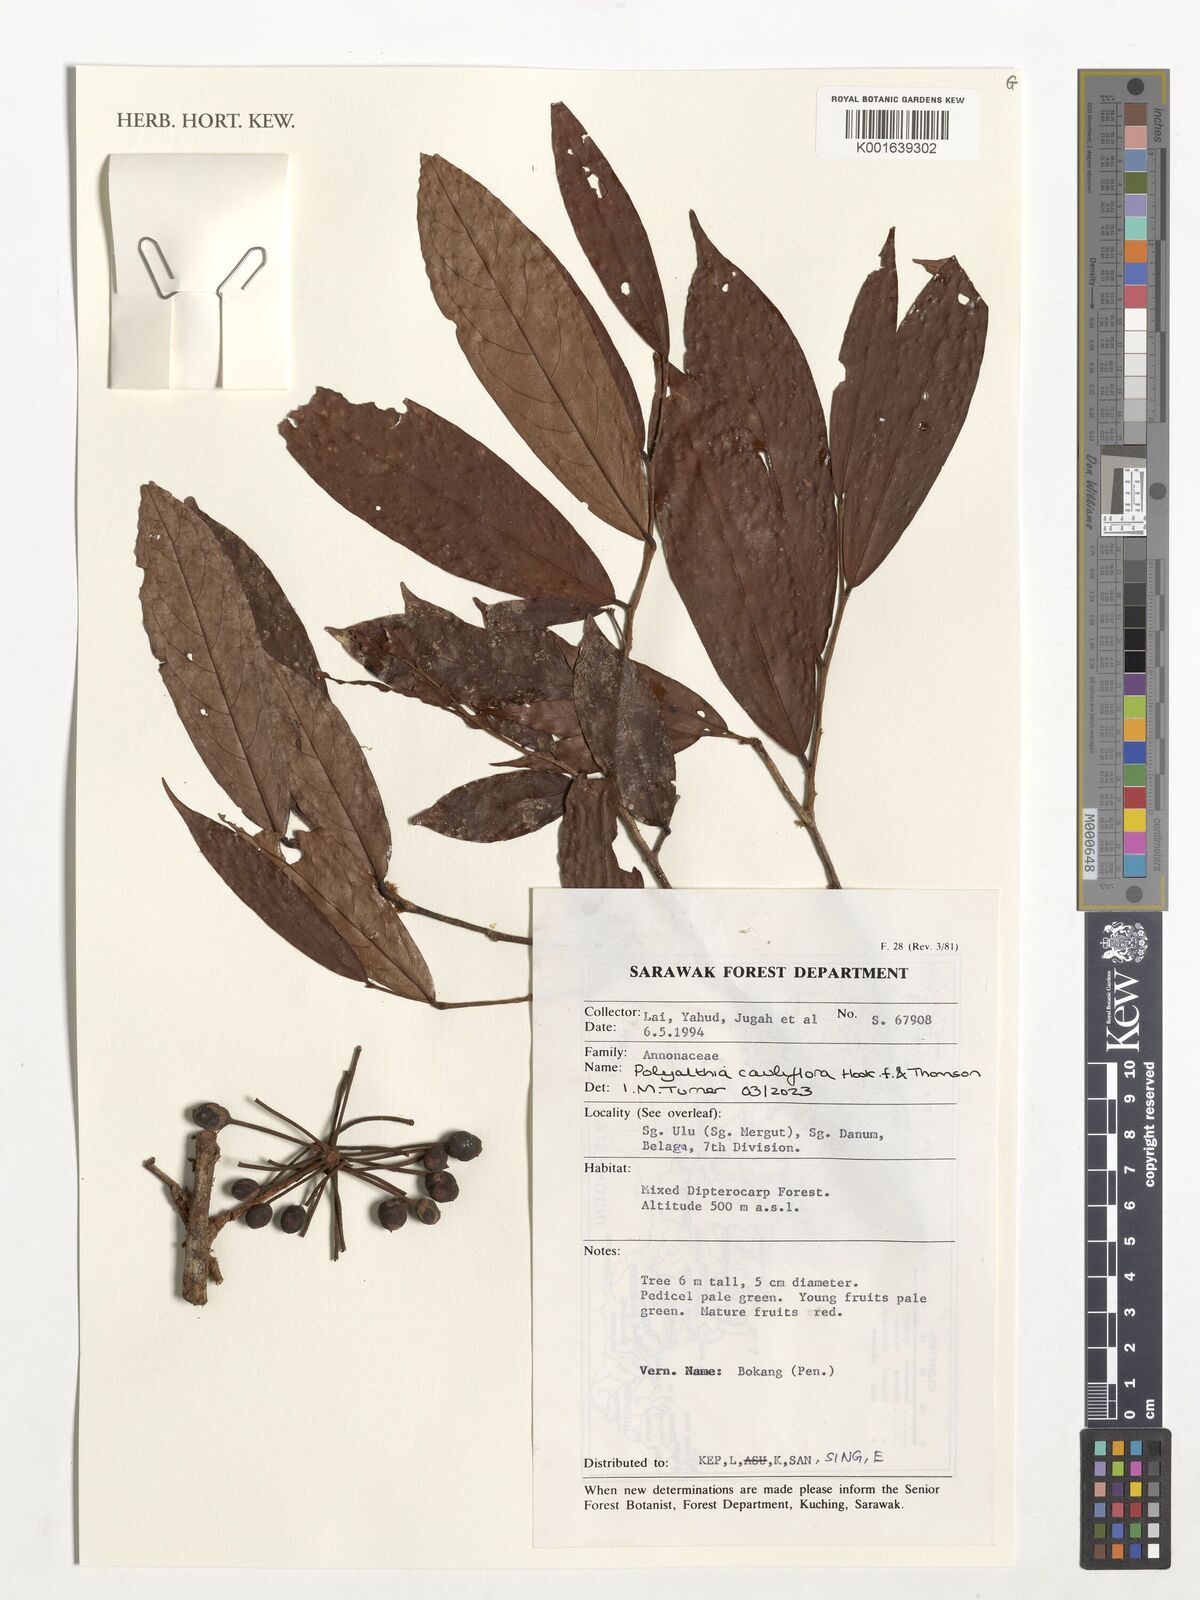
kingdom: Plantae
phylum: Tracheophyta
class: Magnoliopsida
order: Magnoliales
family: Annonaceae
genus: Polyalthia
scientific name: Polyalthia cauliflora
